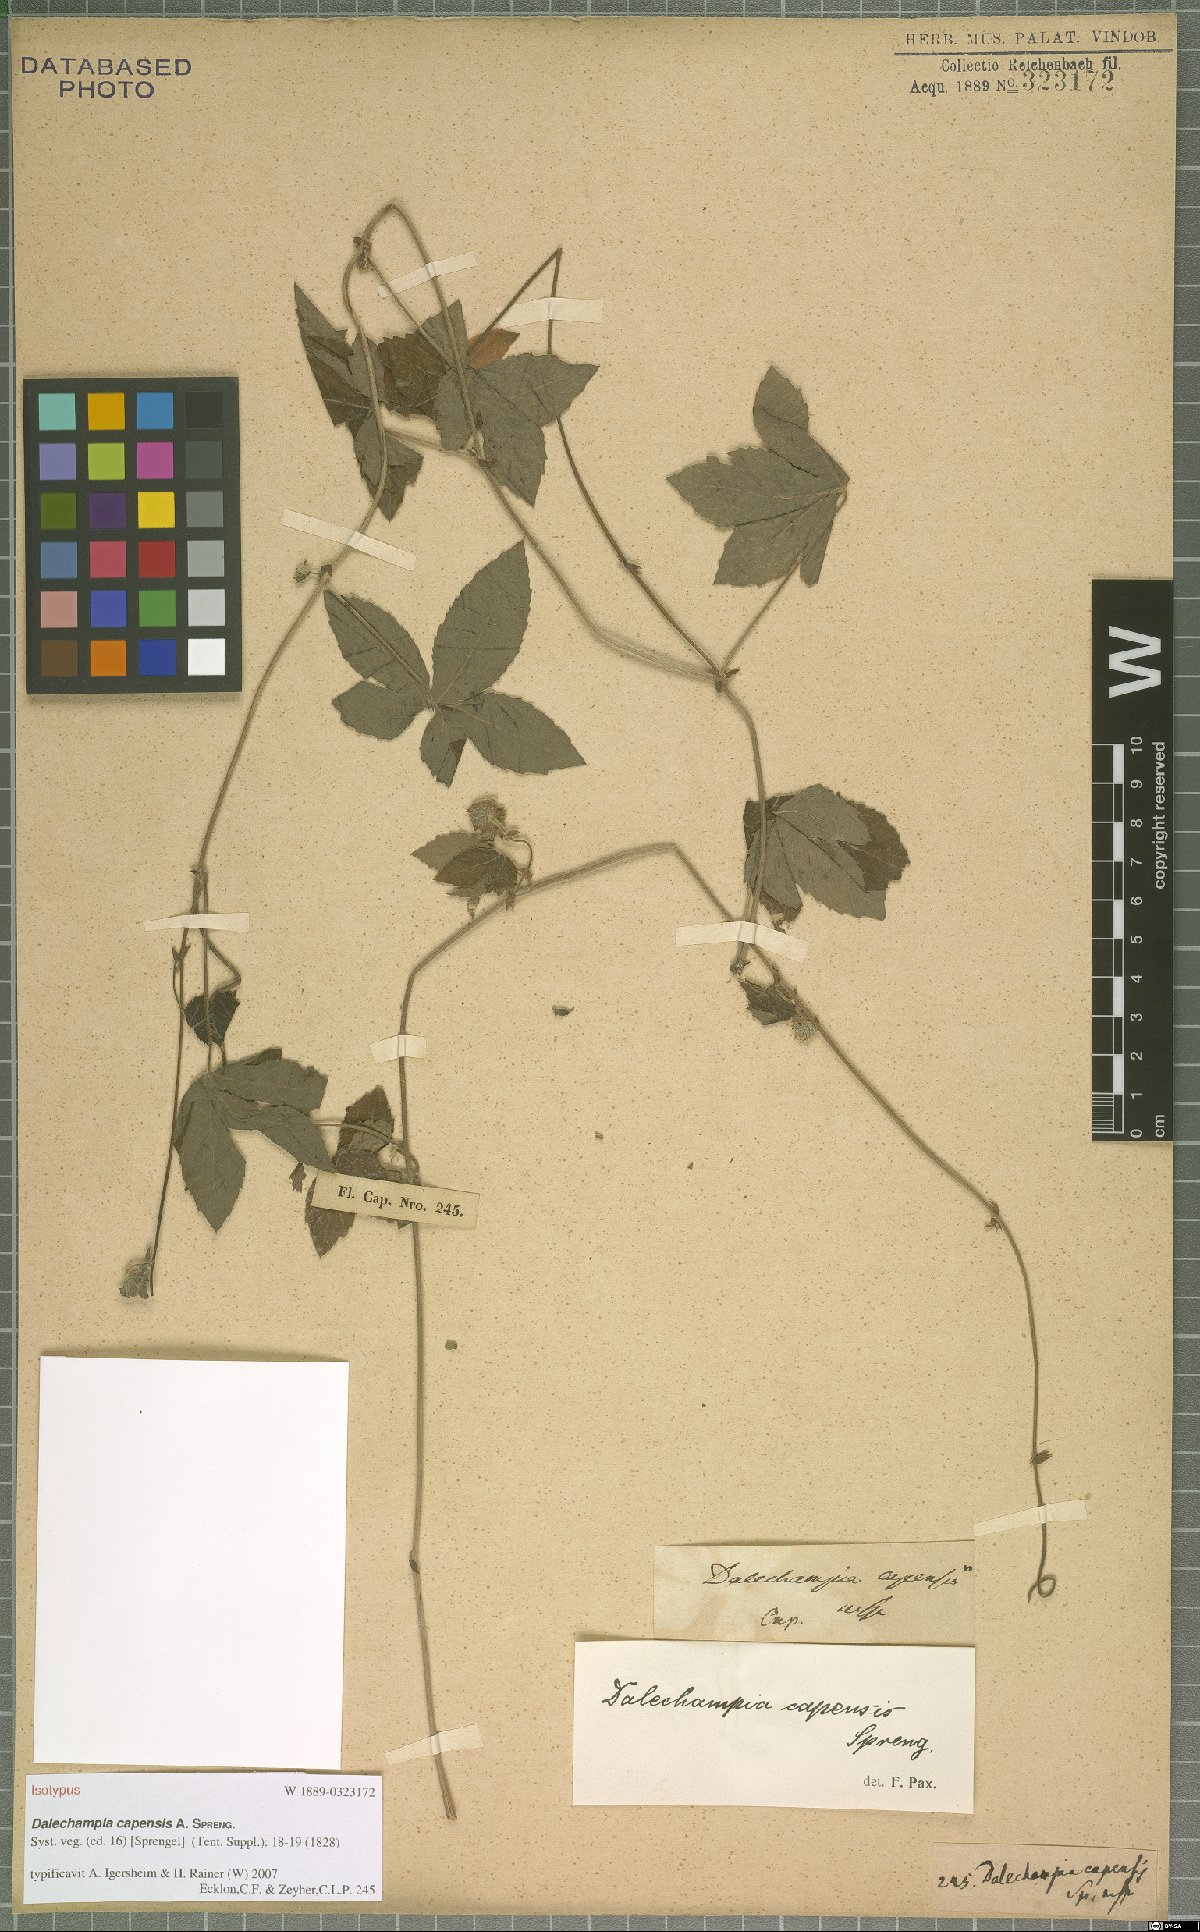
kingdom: Plantae
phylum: Tracheophyta
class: Magnoliopsida
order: Malpighiales
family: Euphorbiaceae
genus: Dalechampia
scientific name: Dalechampia capensis
